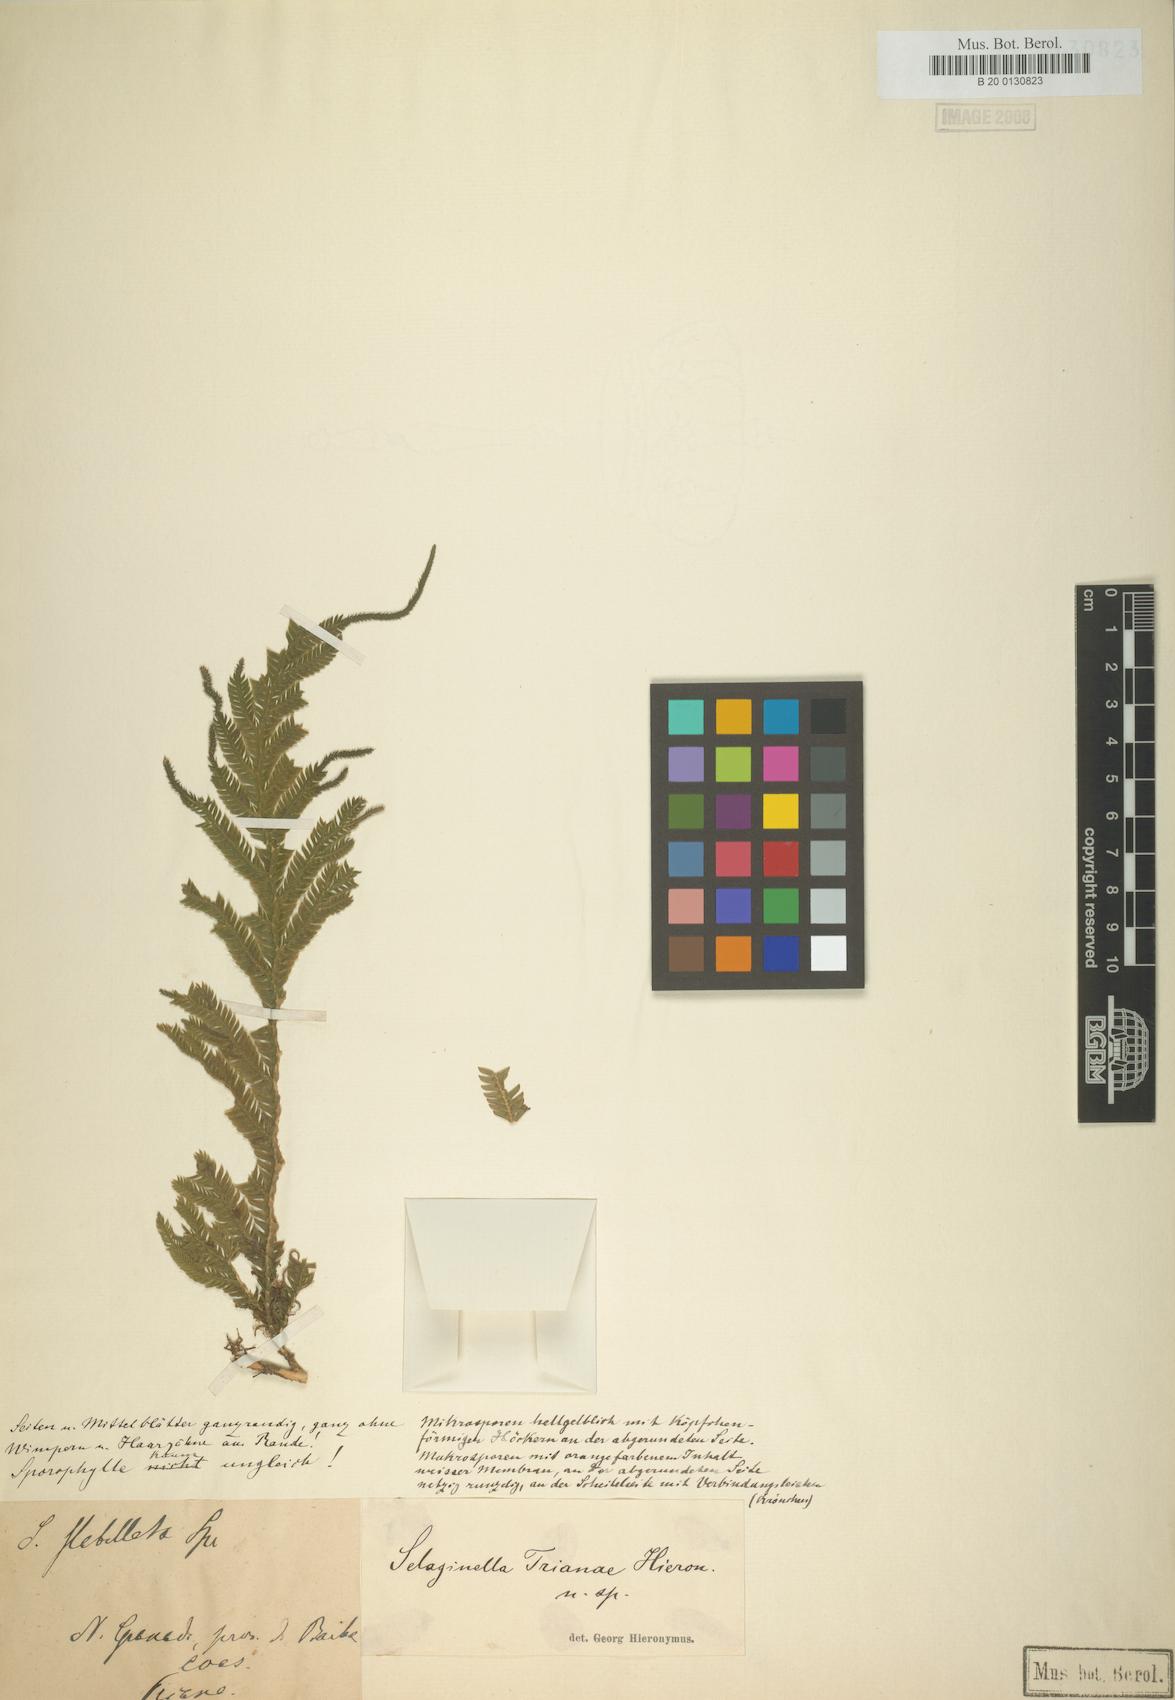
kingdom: Plantae
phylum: Tracheophyta
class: Lycopodiopsida
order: Selaginellales
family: Selaginellaceae
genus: Selaginella
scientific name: Selaginella
